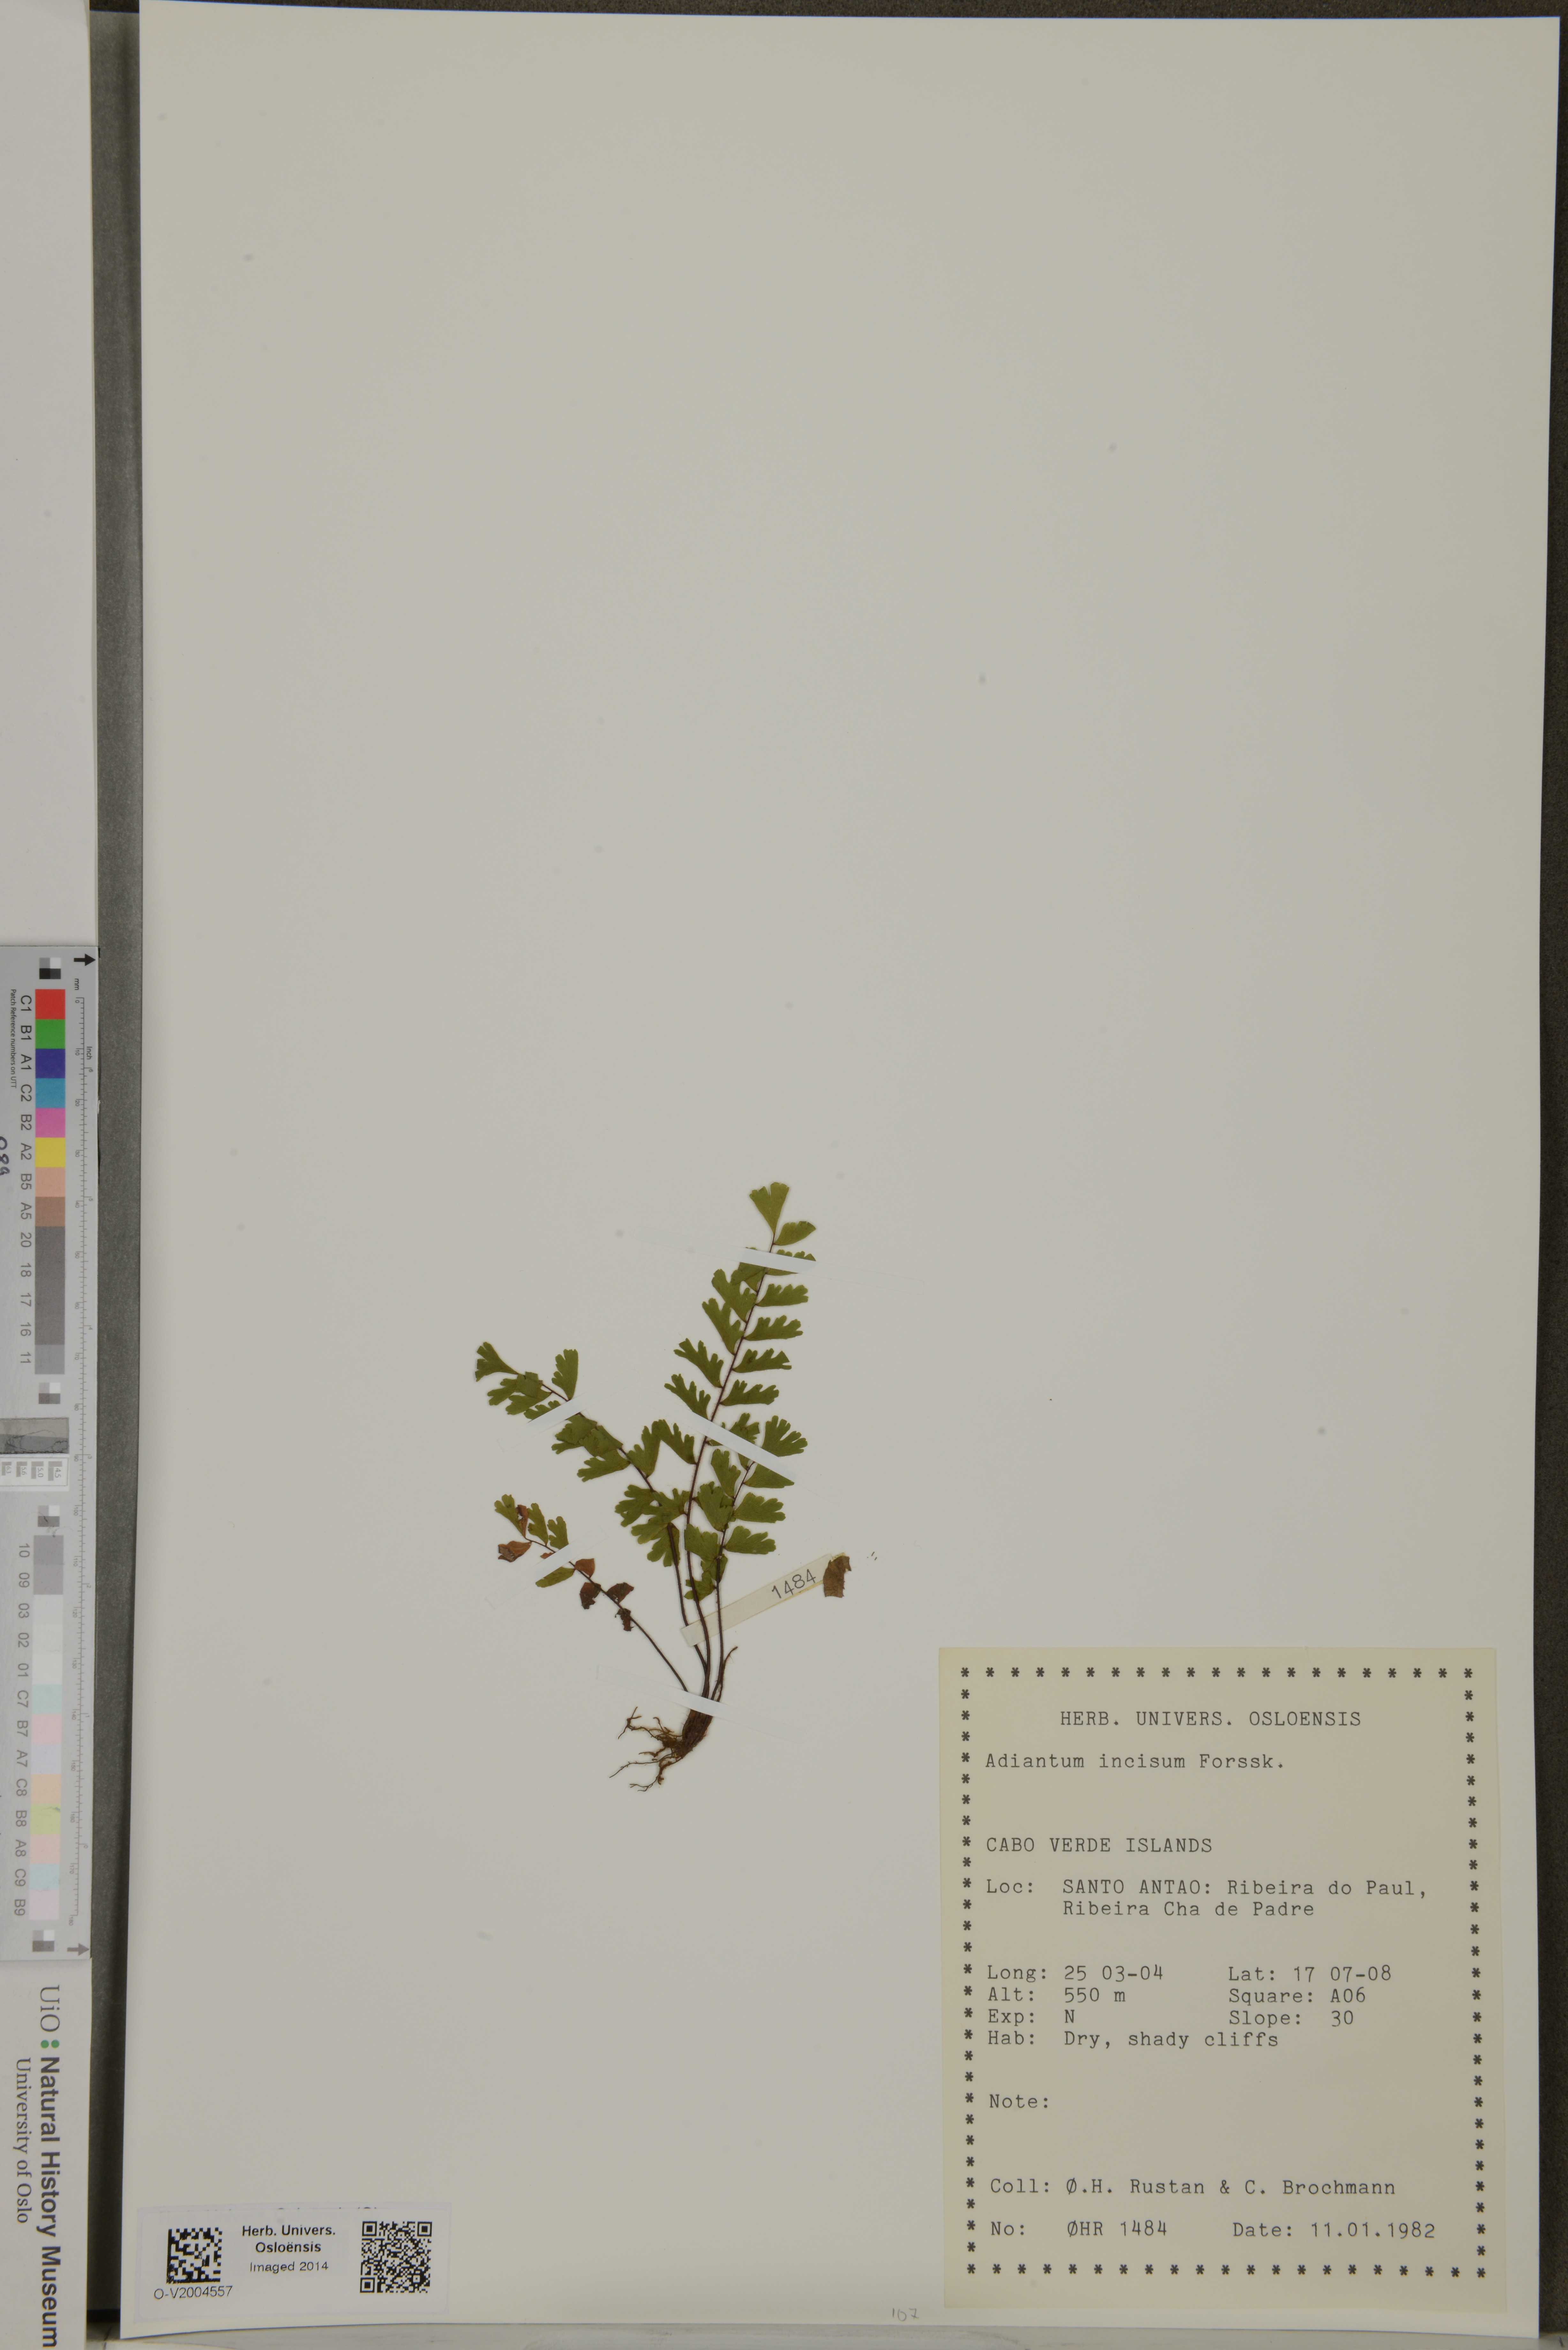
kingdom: Plantae
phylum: Tracheophyta
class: Polypodiopsida
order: Polypodiales
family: Pteridaceae
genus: Adiantum
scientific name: Adiantum incisum
